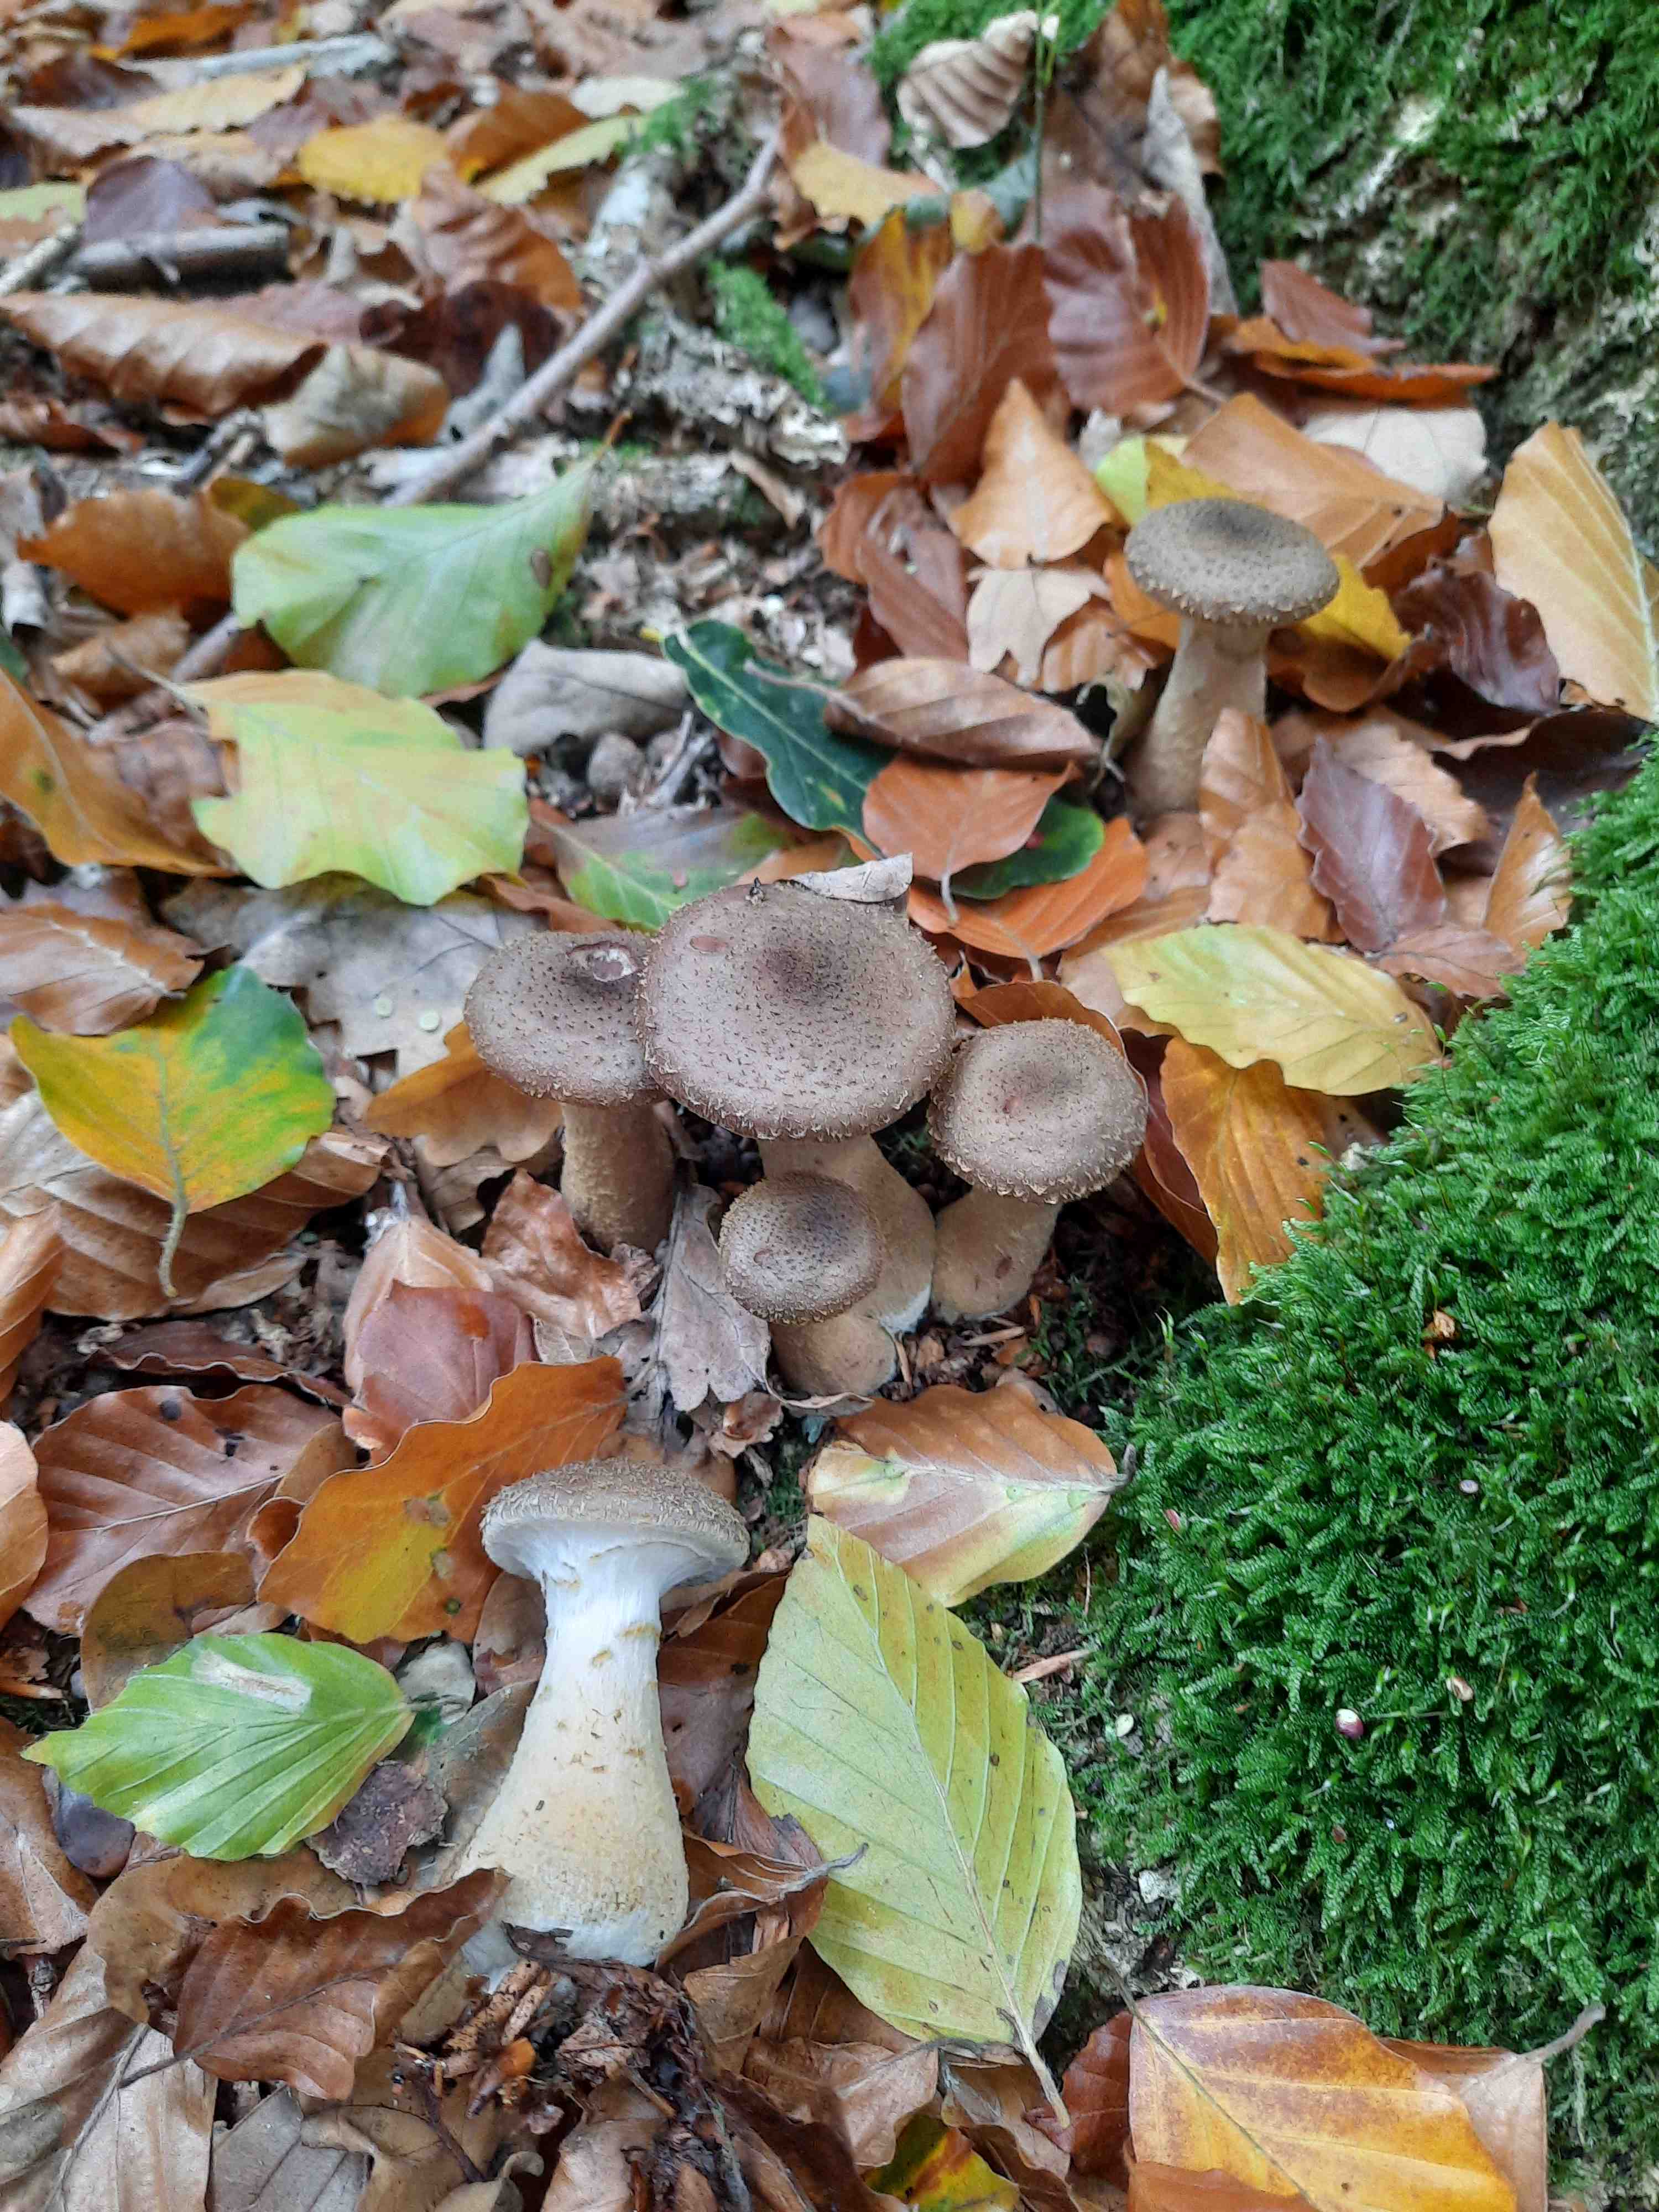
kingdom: Fungi
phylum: Basidiomycota
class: Agaricomycetes
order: Agaricales
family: Physalacriaceae
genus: Armillaria
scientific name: Armillaria lutea
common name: køllestokket honningsvamp
